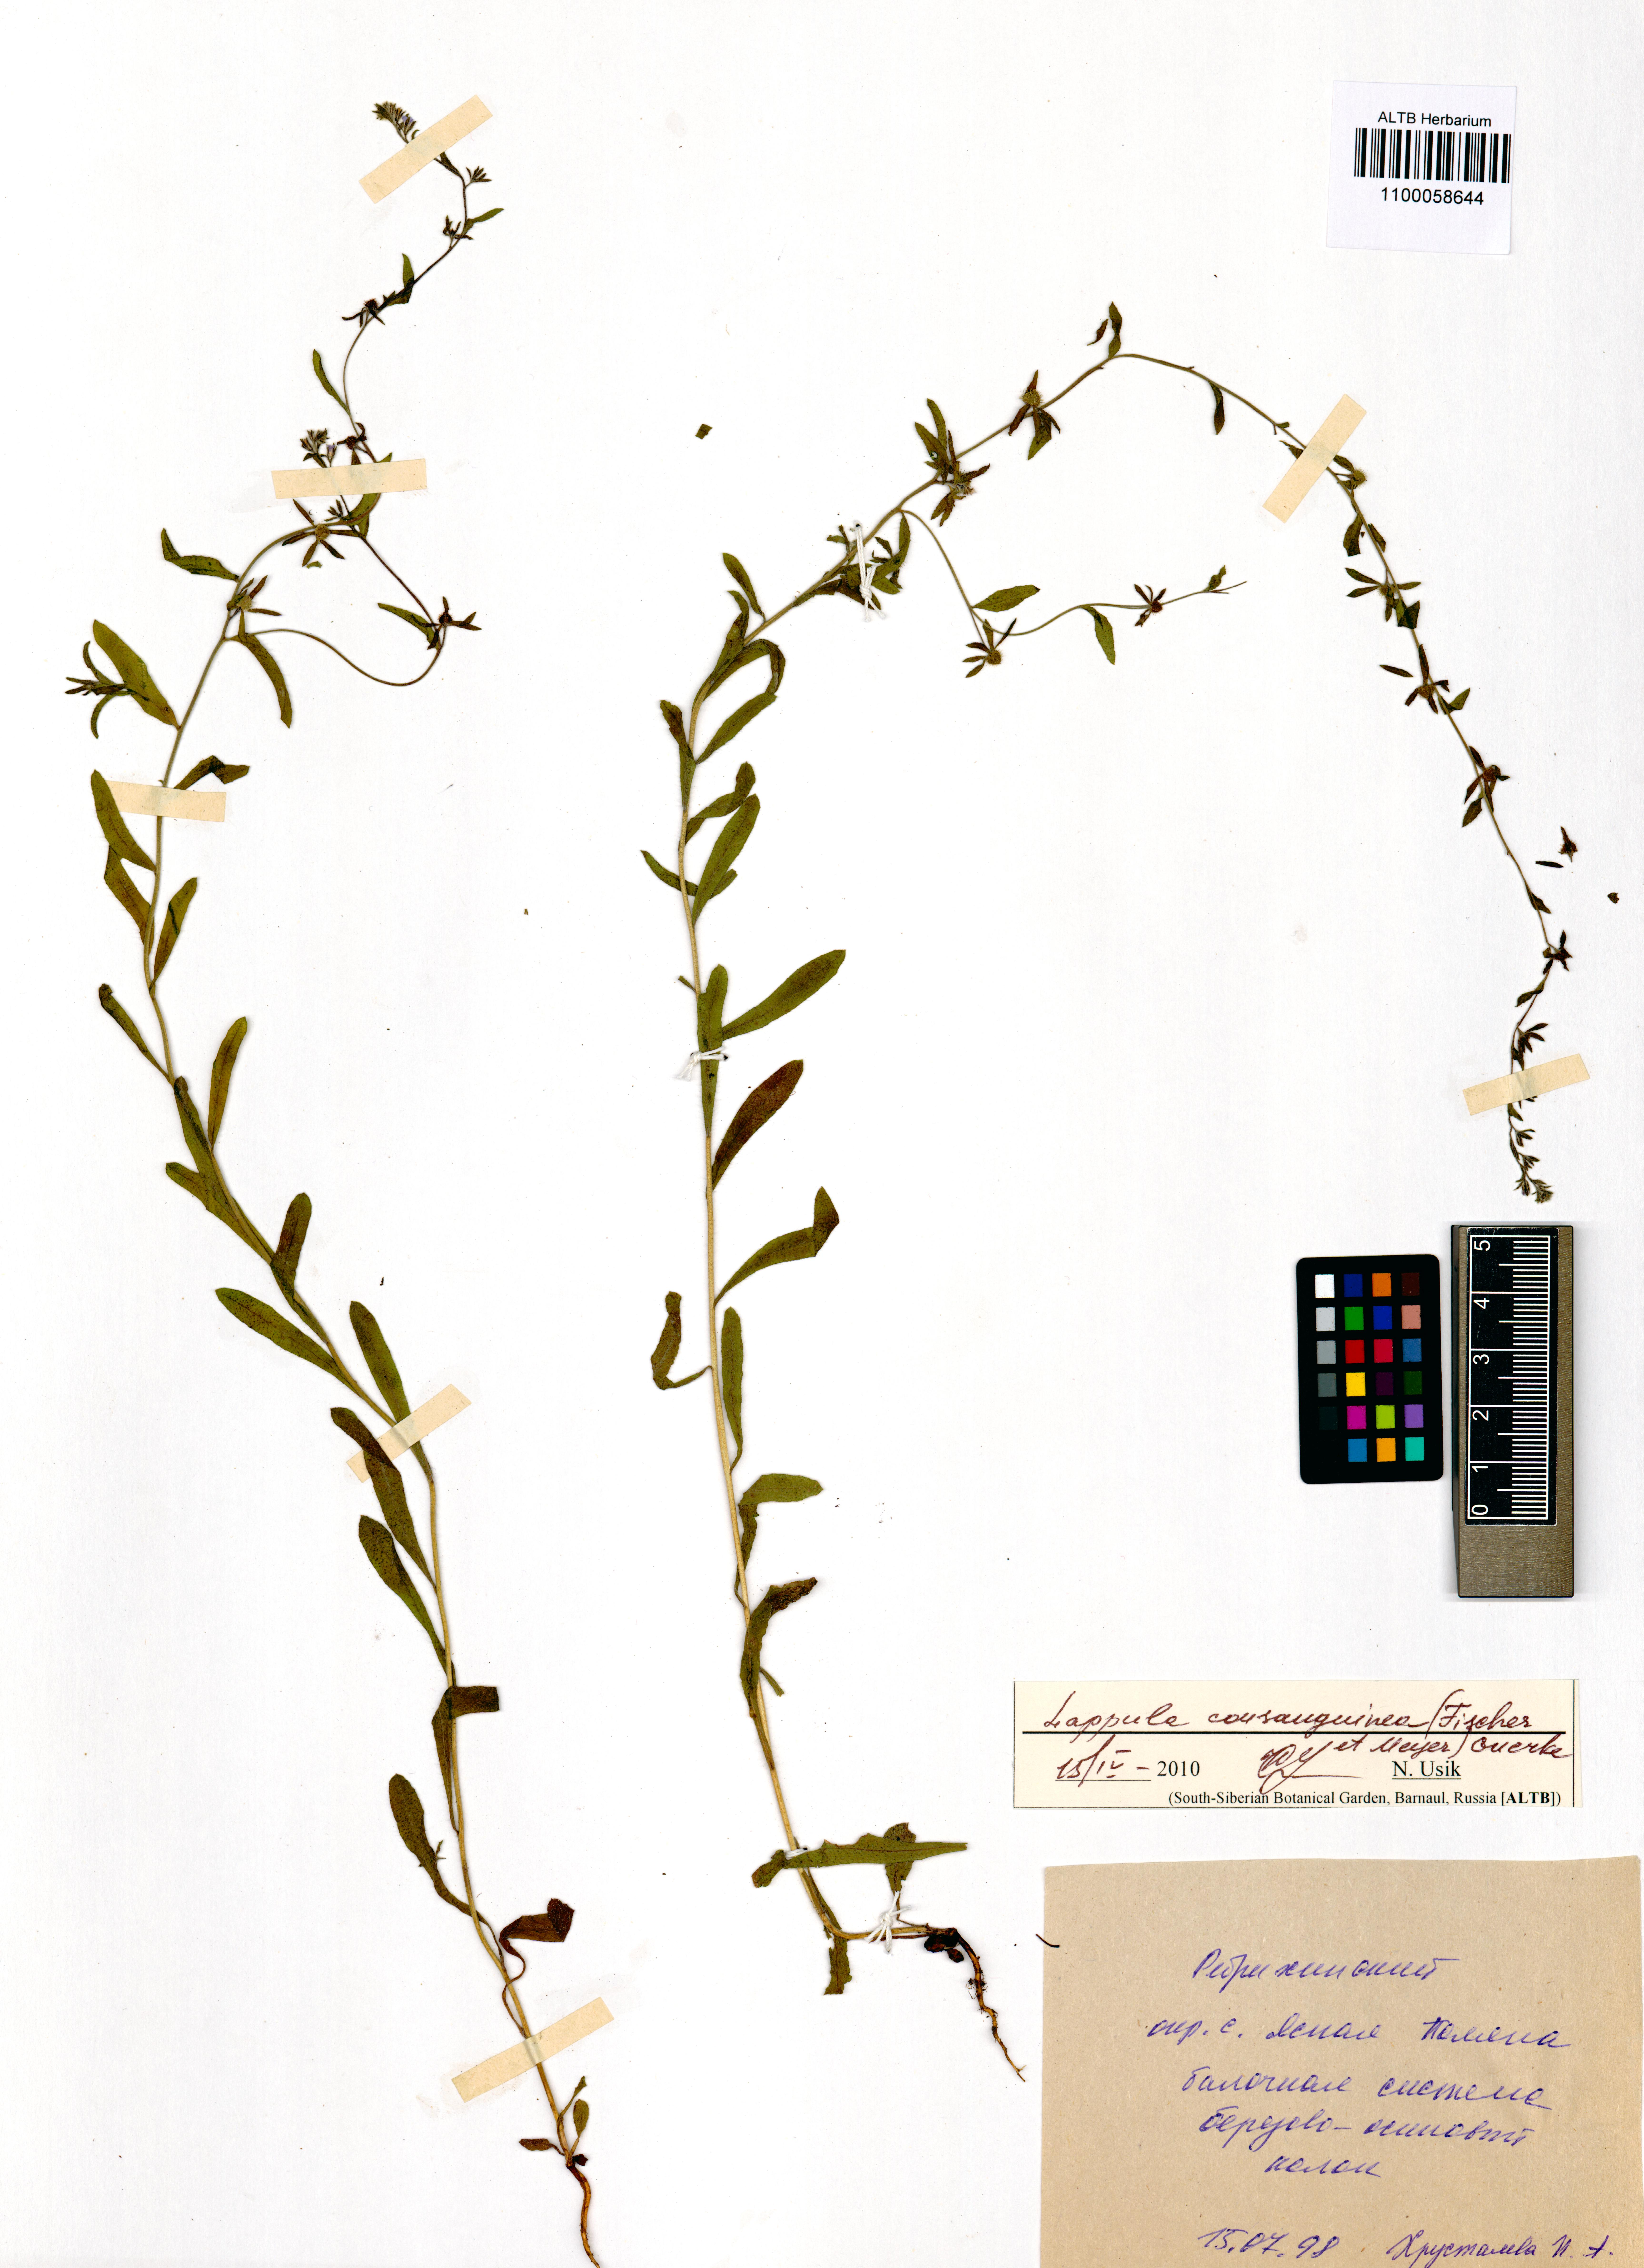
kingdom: Plantae
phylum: Tracheophyta
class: Magnoliopsida
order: Boraginales
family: Boraginaceae
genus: Lappula
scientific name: Lappula squarrosa
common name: European stickseed
